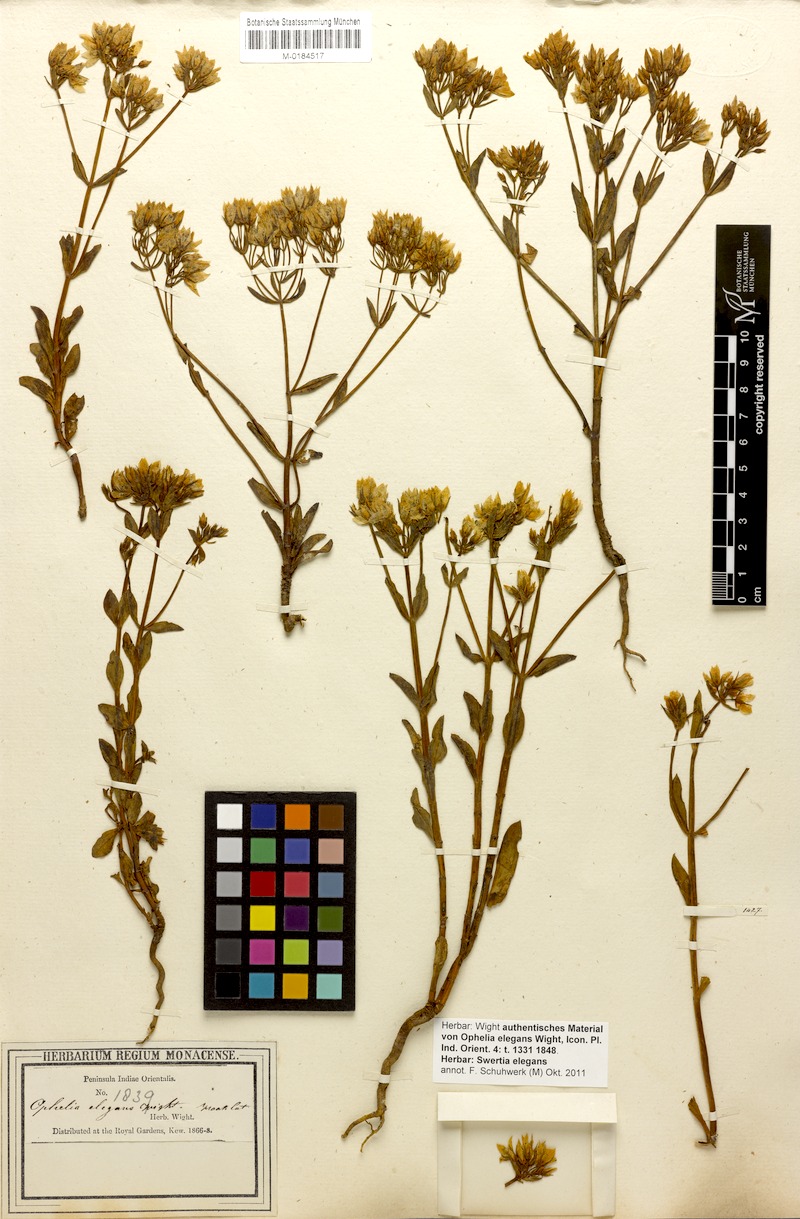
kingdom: Plantae
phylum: Tracheophyta
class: Magnoliopsida
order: Gentianales
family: Gentianaceae
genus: Swertia
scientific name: Swertia angustifolia
